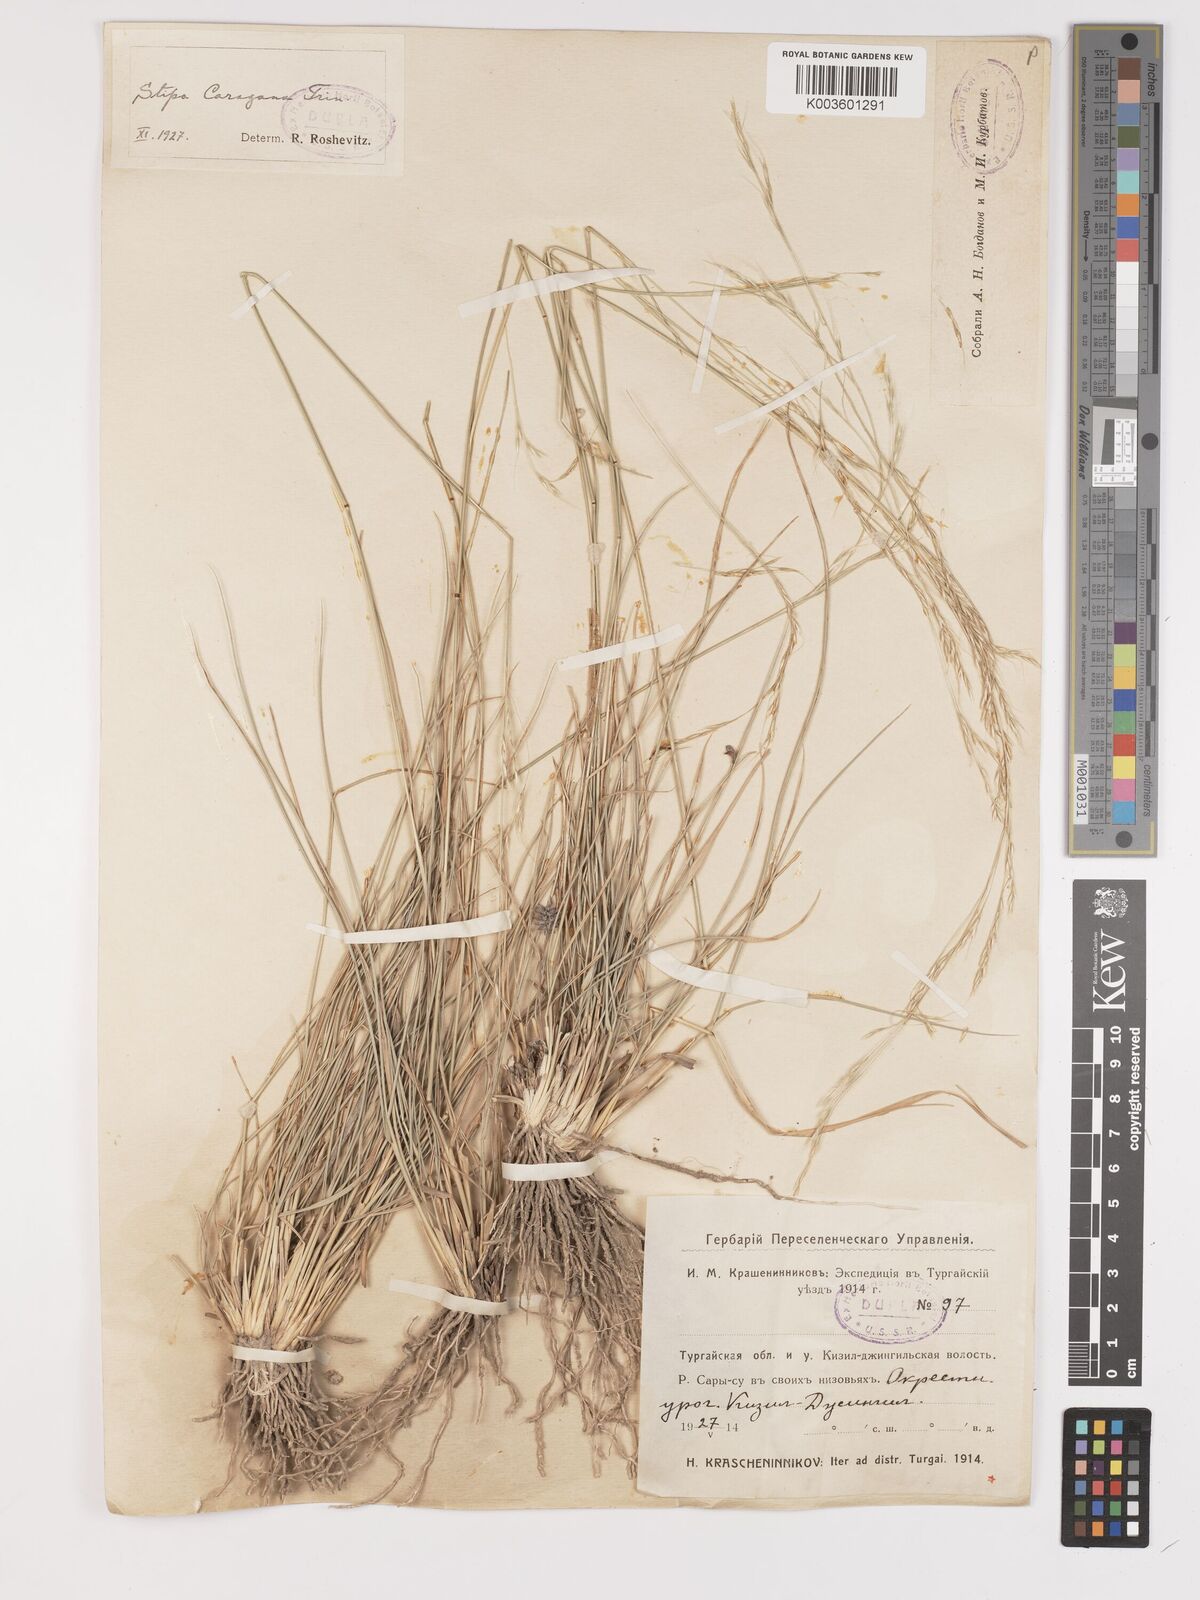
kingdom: Plantae
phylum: Tracheophyta
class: Liliopsida
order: Poales
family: Poaceae
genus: Stipa
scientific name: Stipa conferta
